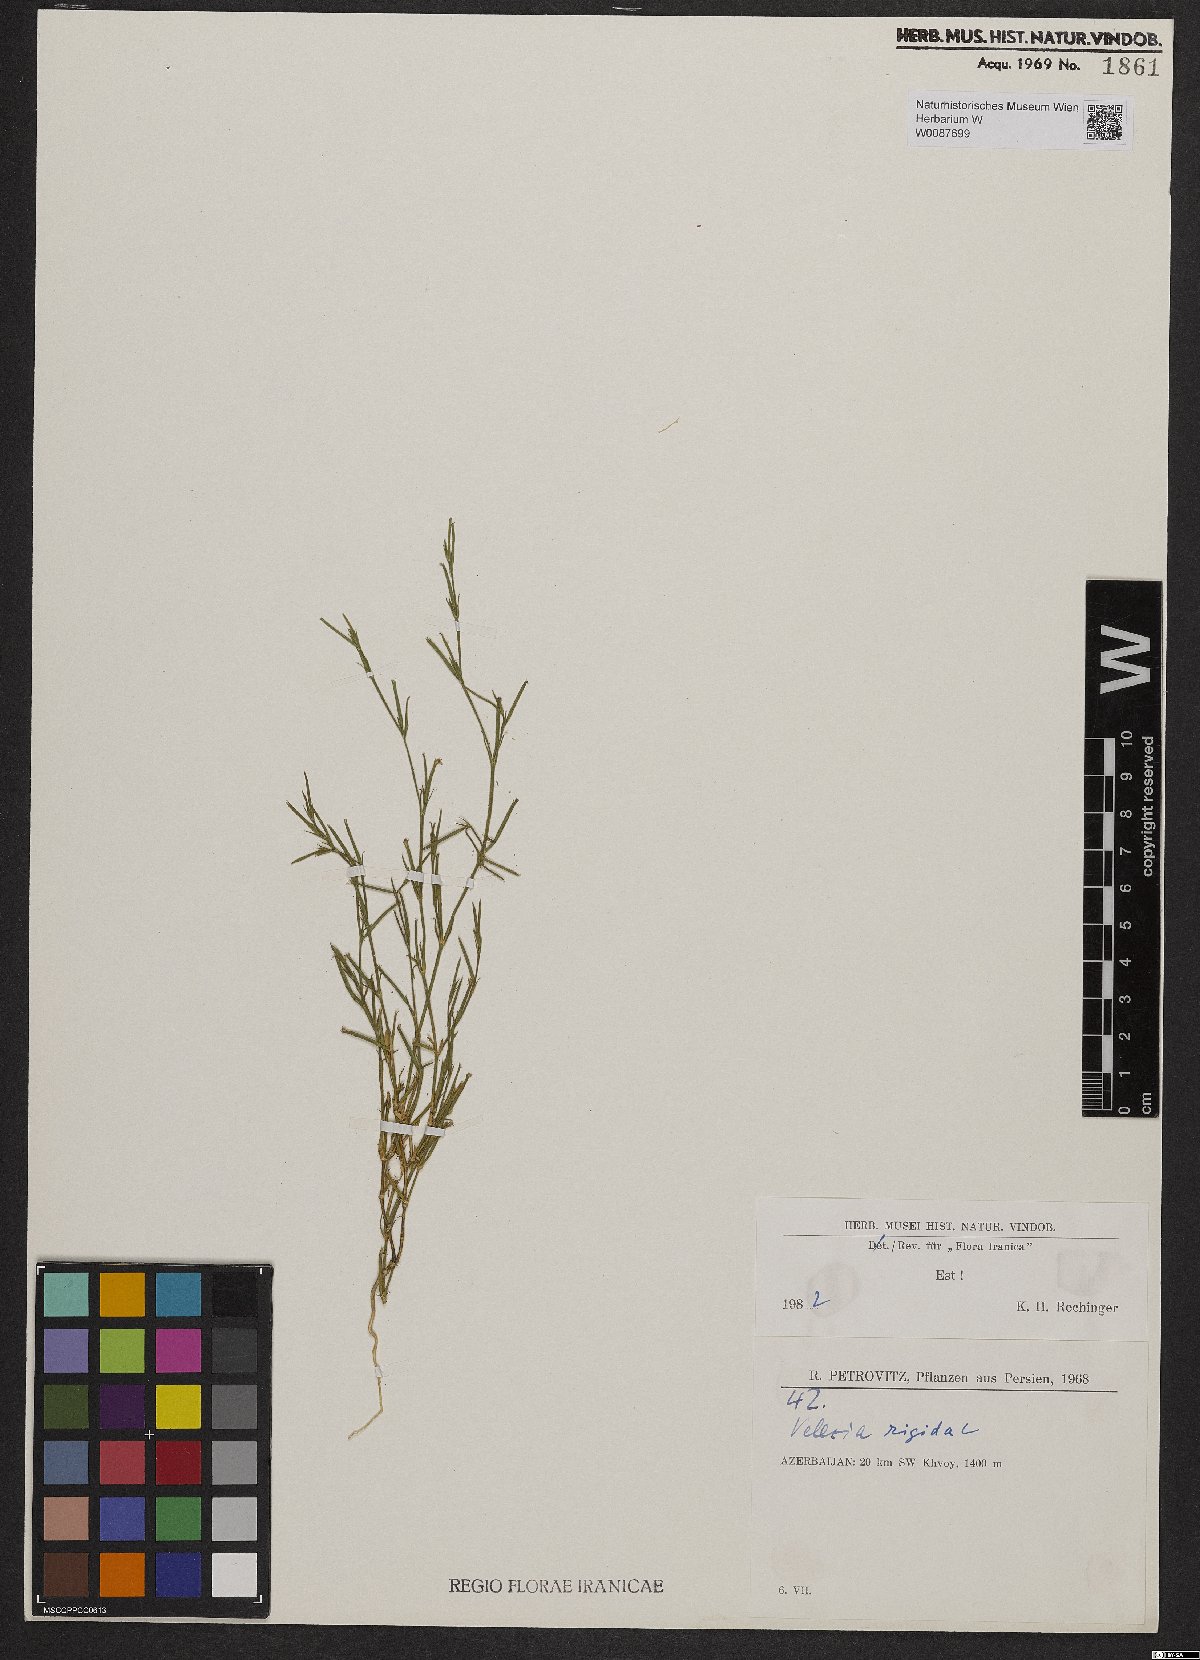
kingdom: Plantae
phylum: Tracheophyta
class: Magnoliopsida
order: Caryophyllales
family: Caryophyllaceae
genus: Dianthus
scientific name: Dianthus nudiflorus
